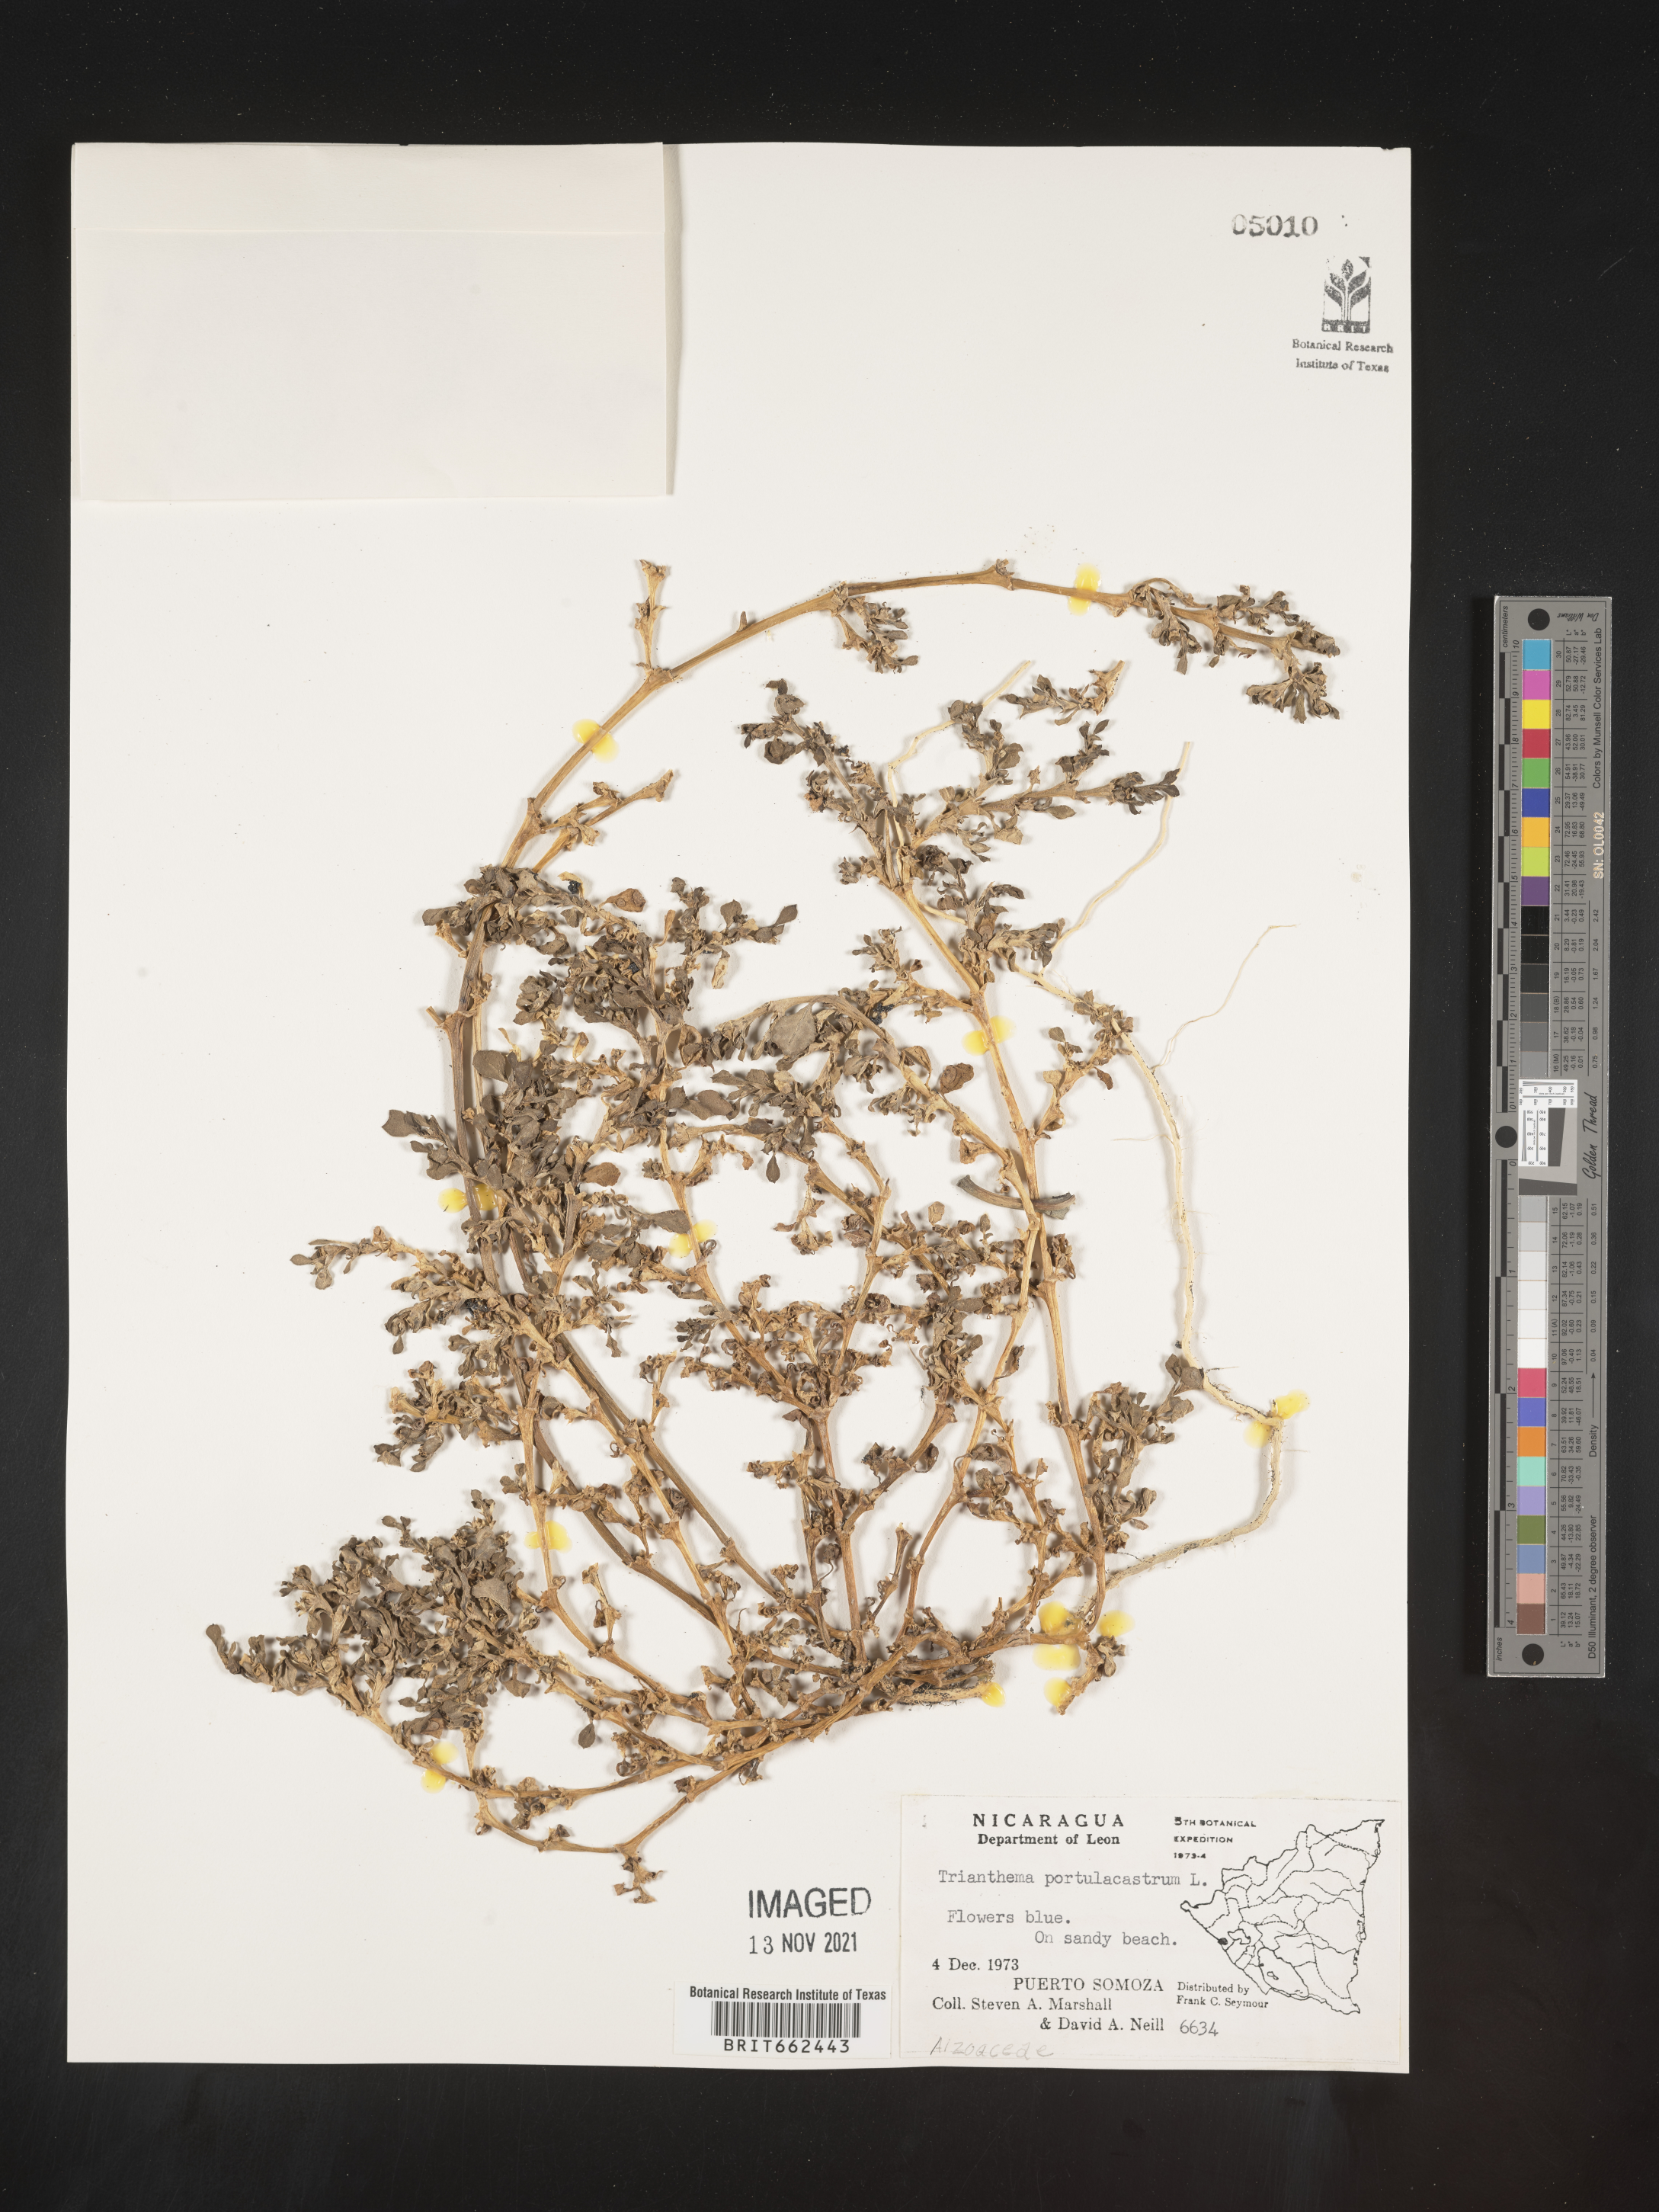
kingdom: Plantae
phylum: Tracheophyta
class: Magnoliopsida
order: Caryophyllales
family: Aizoaceae
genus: Trianthema
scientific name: Trianthema
